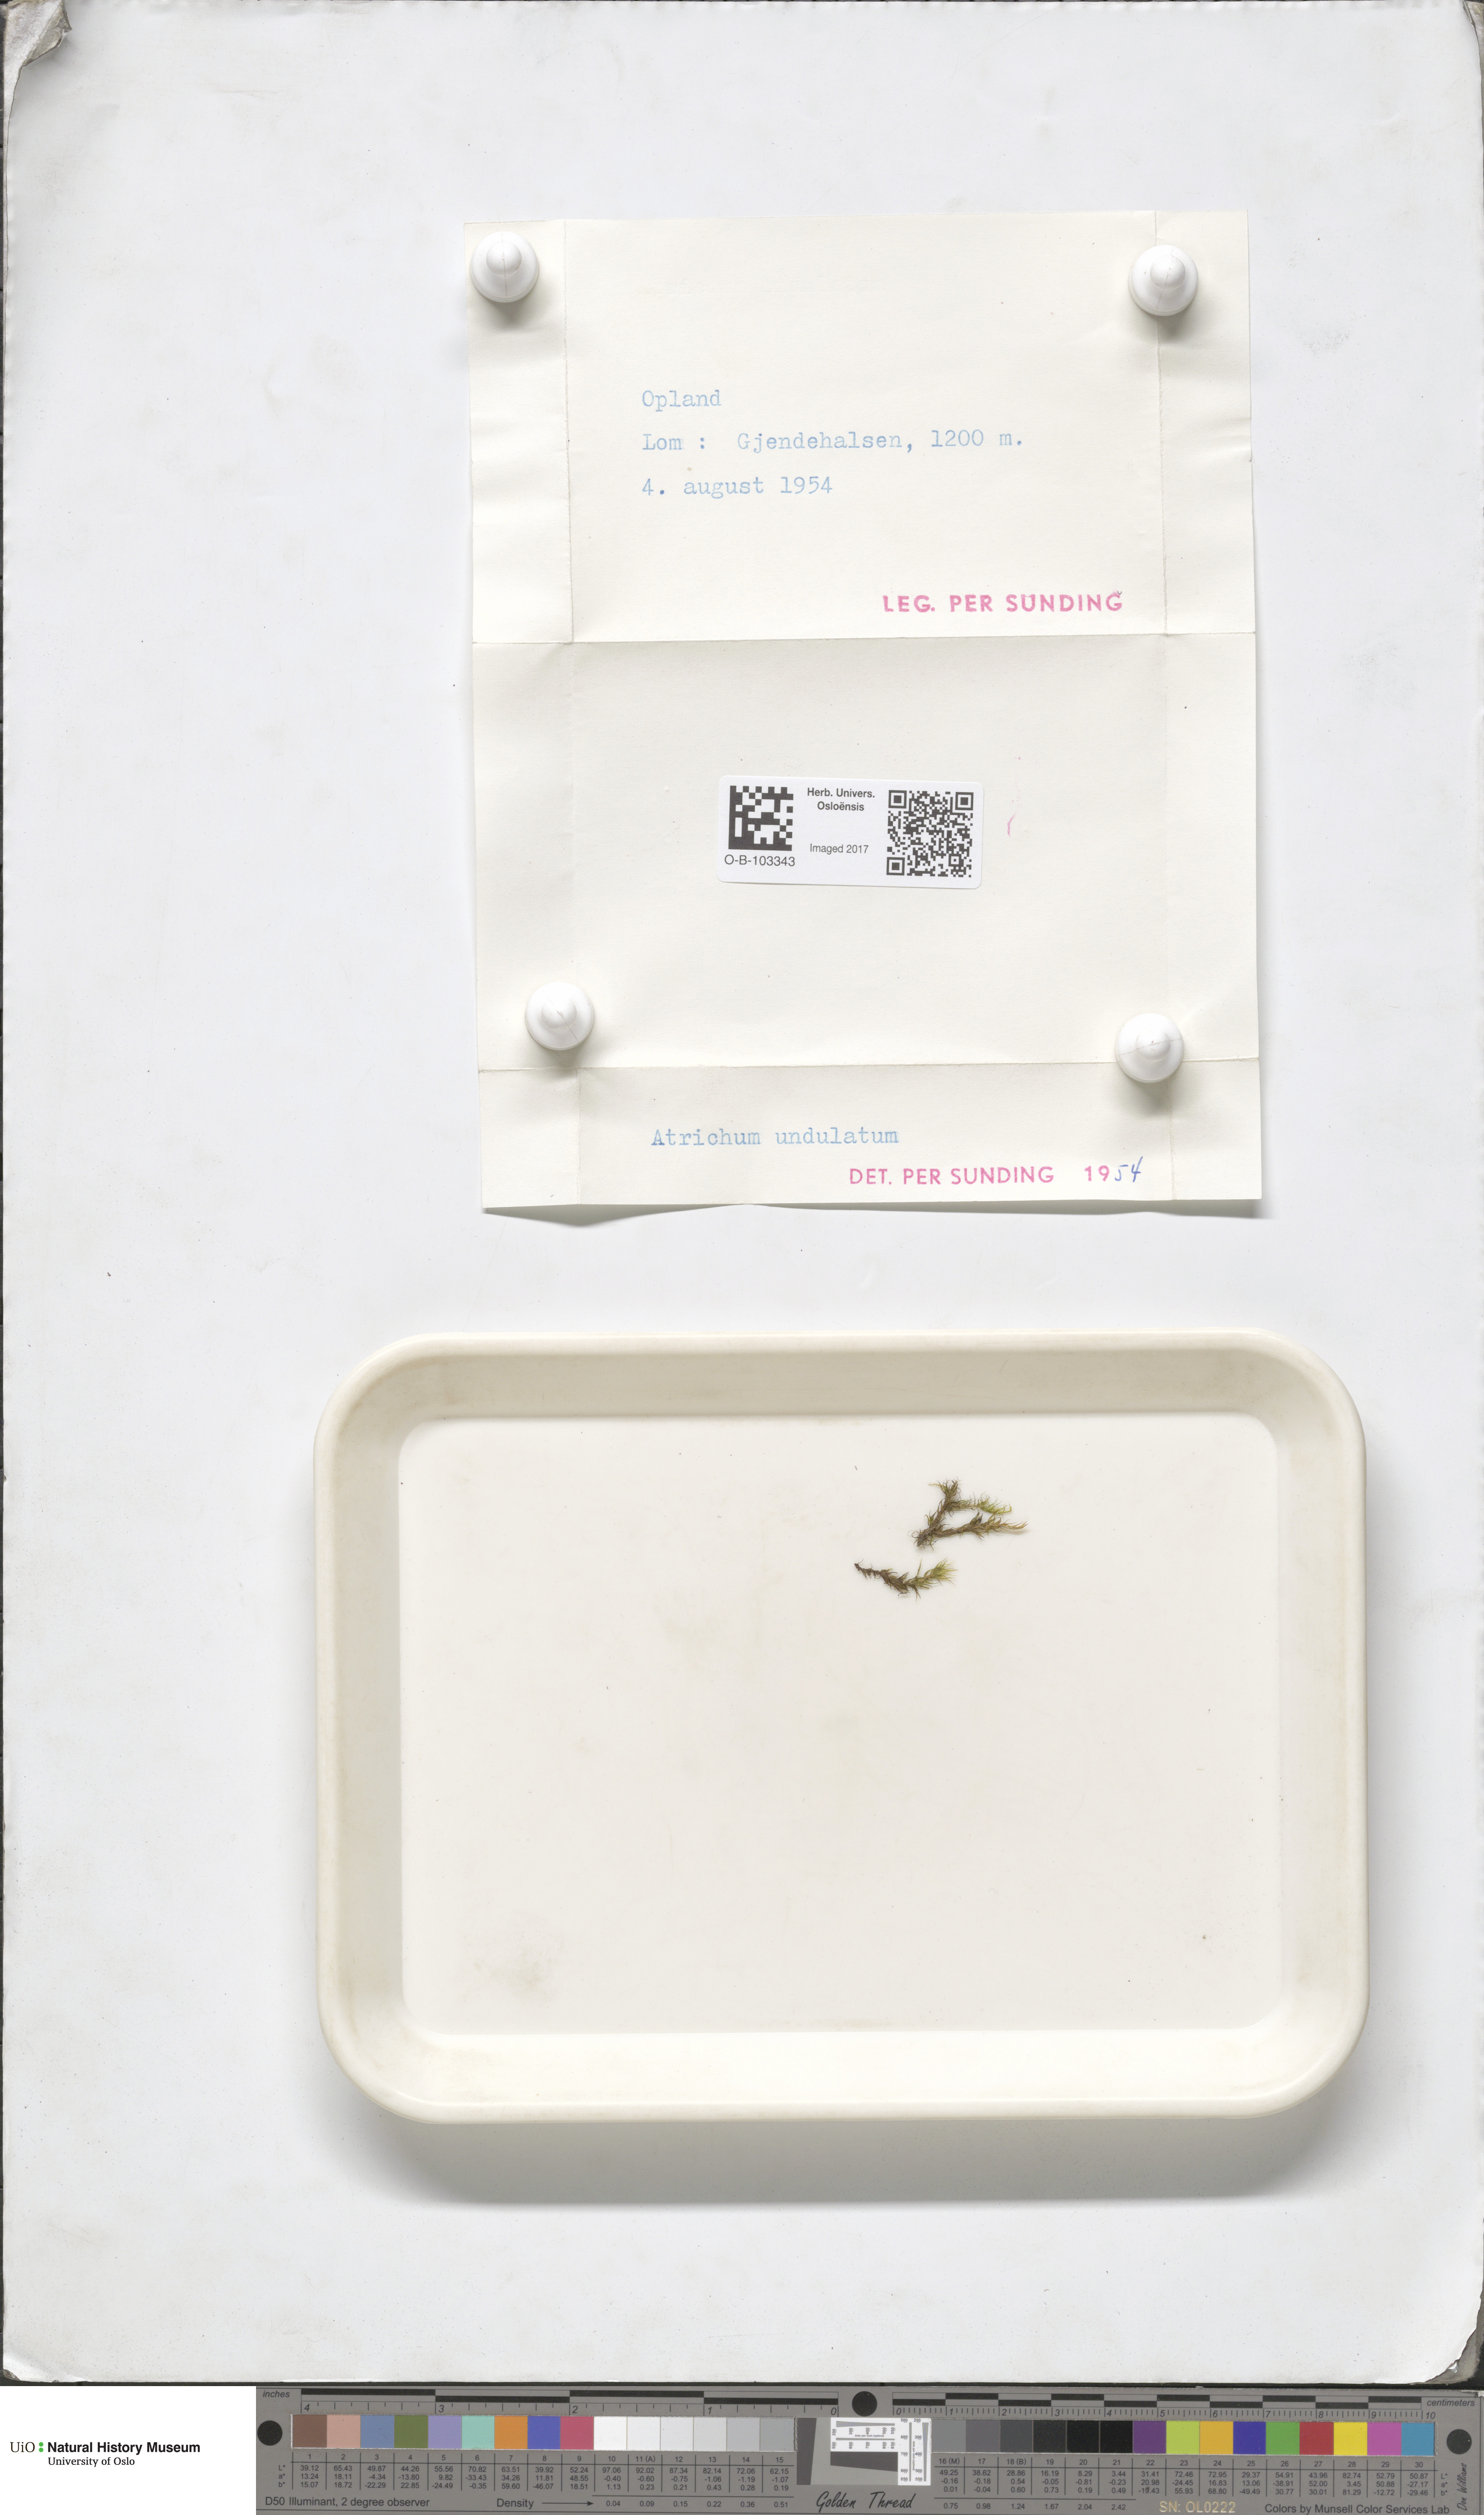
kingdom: Plantae
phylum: Bryophyta
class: Polytrichopsida
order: Polytrichales
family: Polytrichaceae
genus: Atrichum
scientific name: Atrichum undulatum
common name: Common smoothcap
